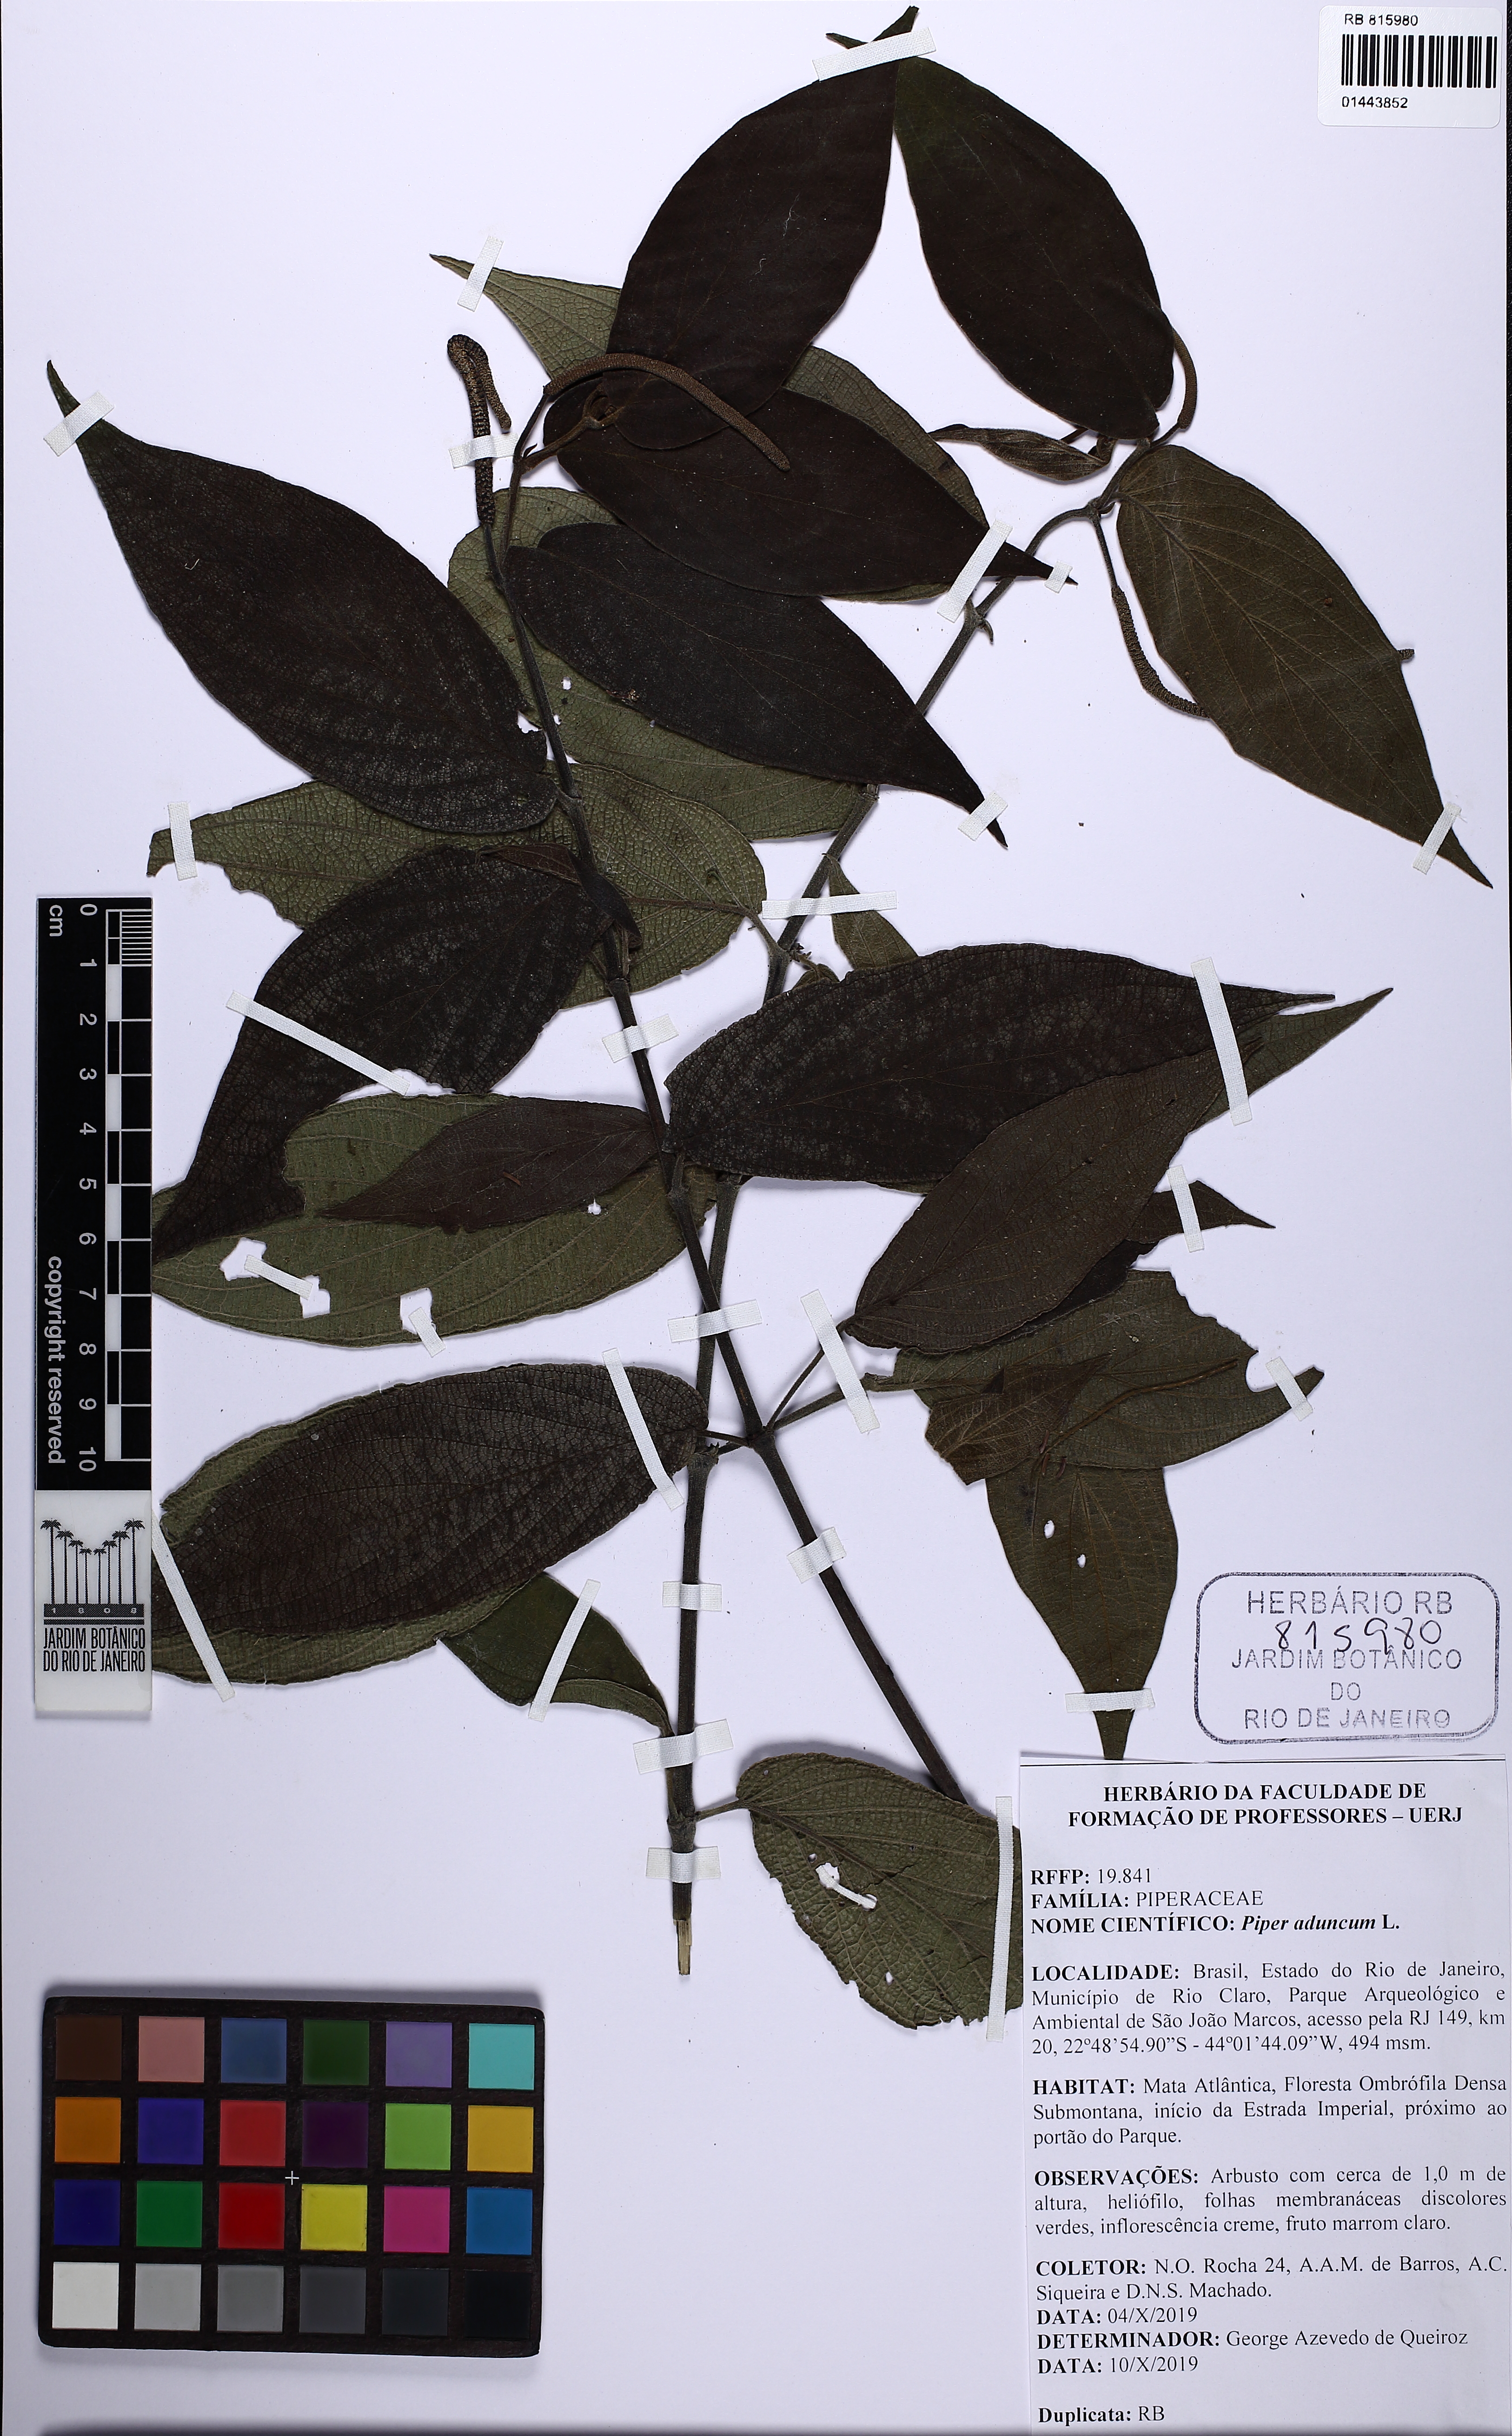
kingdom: Plantae
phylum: Tracheophyta
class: Magnoliopsida
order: Piperales
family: Piperaceae
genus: Piper
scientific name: Piper aduncum
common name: Spiked pepper
